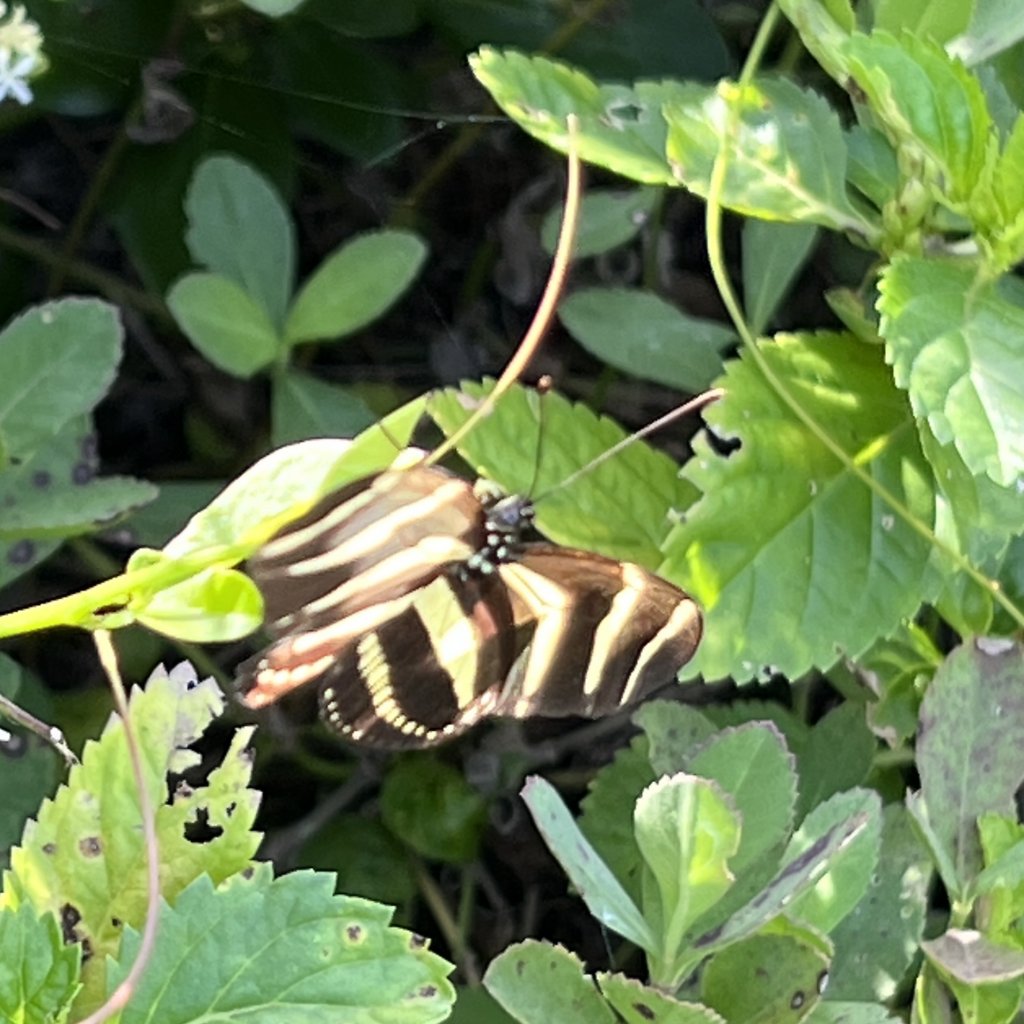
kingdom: Animalia
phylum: Arthropoda
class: Insecta
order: Lepidoptera
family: Nymphalidae
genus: Heliconius
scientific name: Heliconius charithonia
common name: Zebra Longwing
